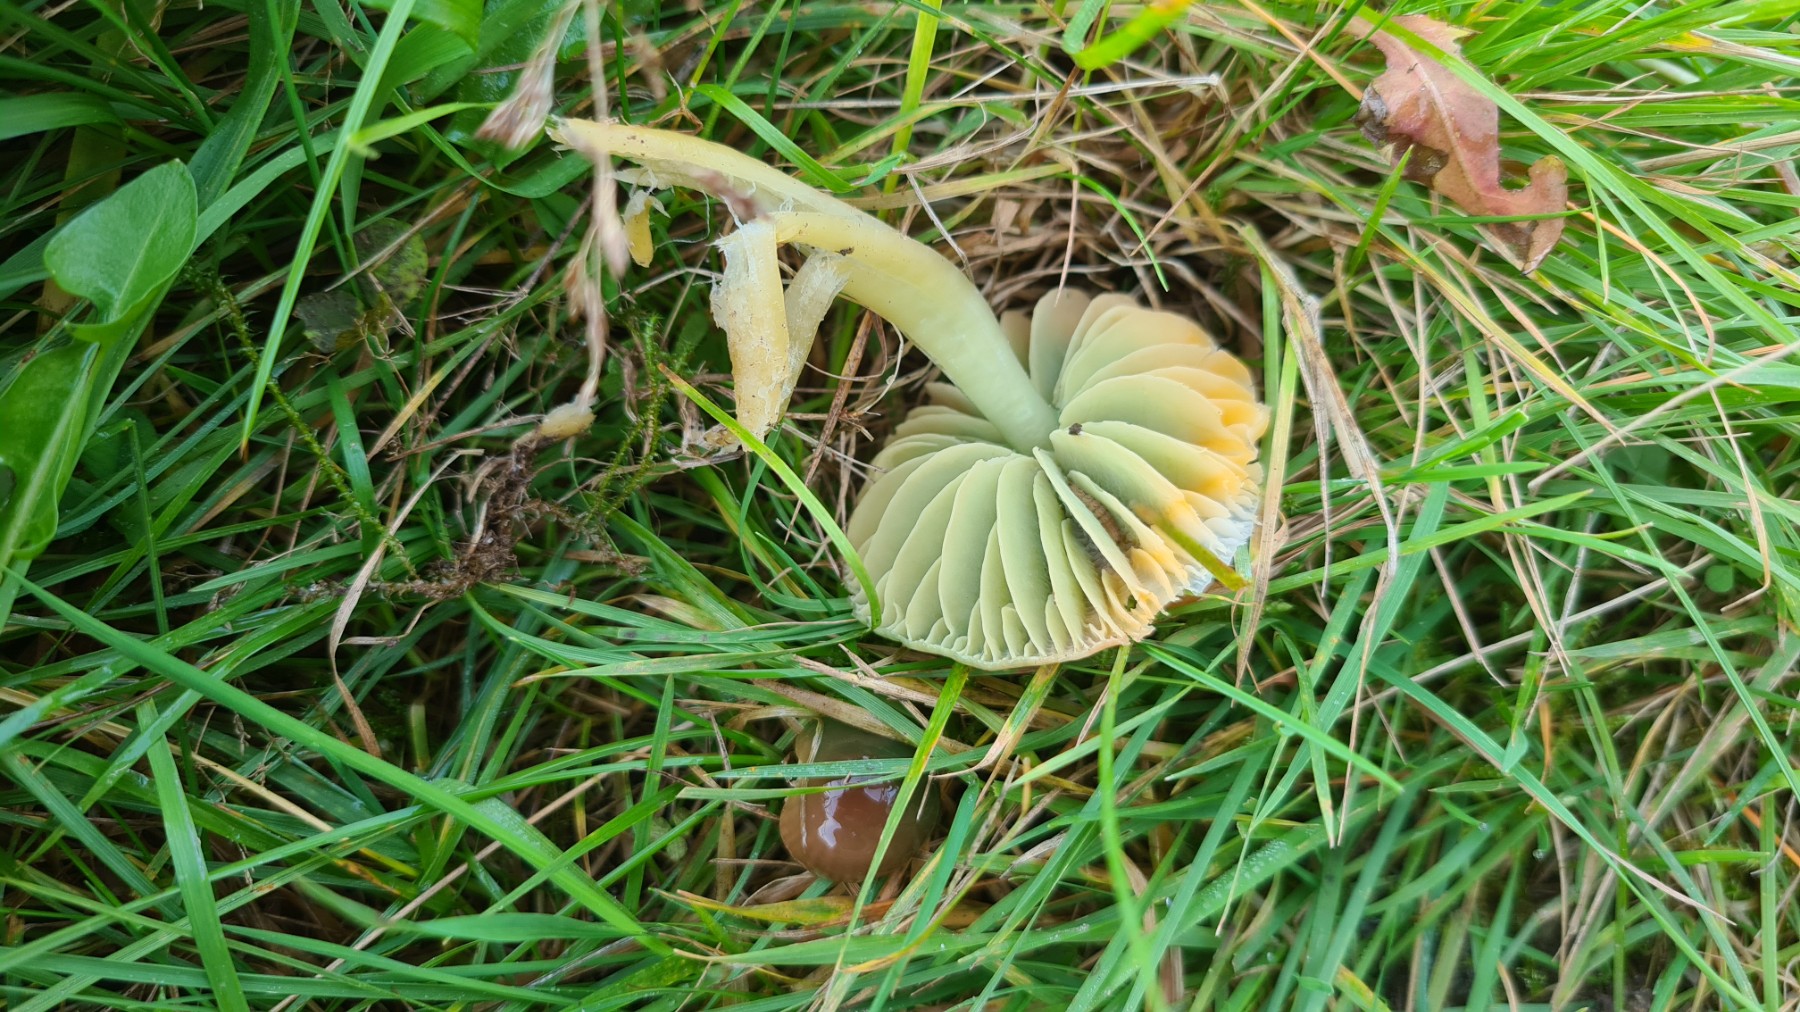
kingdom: Fungi
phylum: Basidiomycota
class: Agaricomycetes
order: Agaricales
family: Hygrophoraceae
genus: Gliophorus
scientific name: Gliophorus psittacinus
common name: papegøje-vokshat
